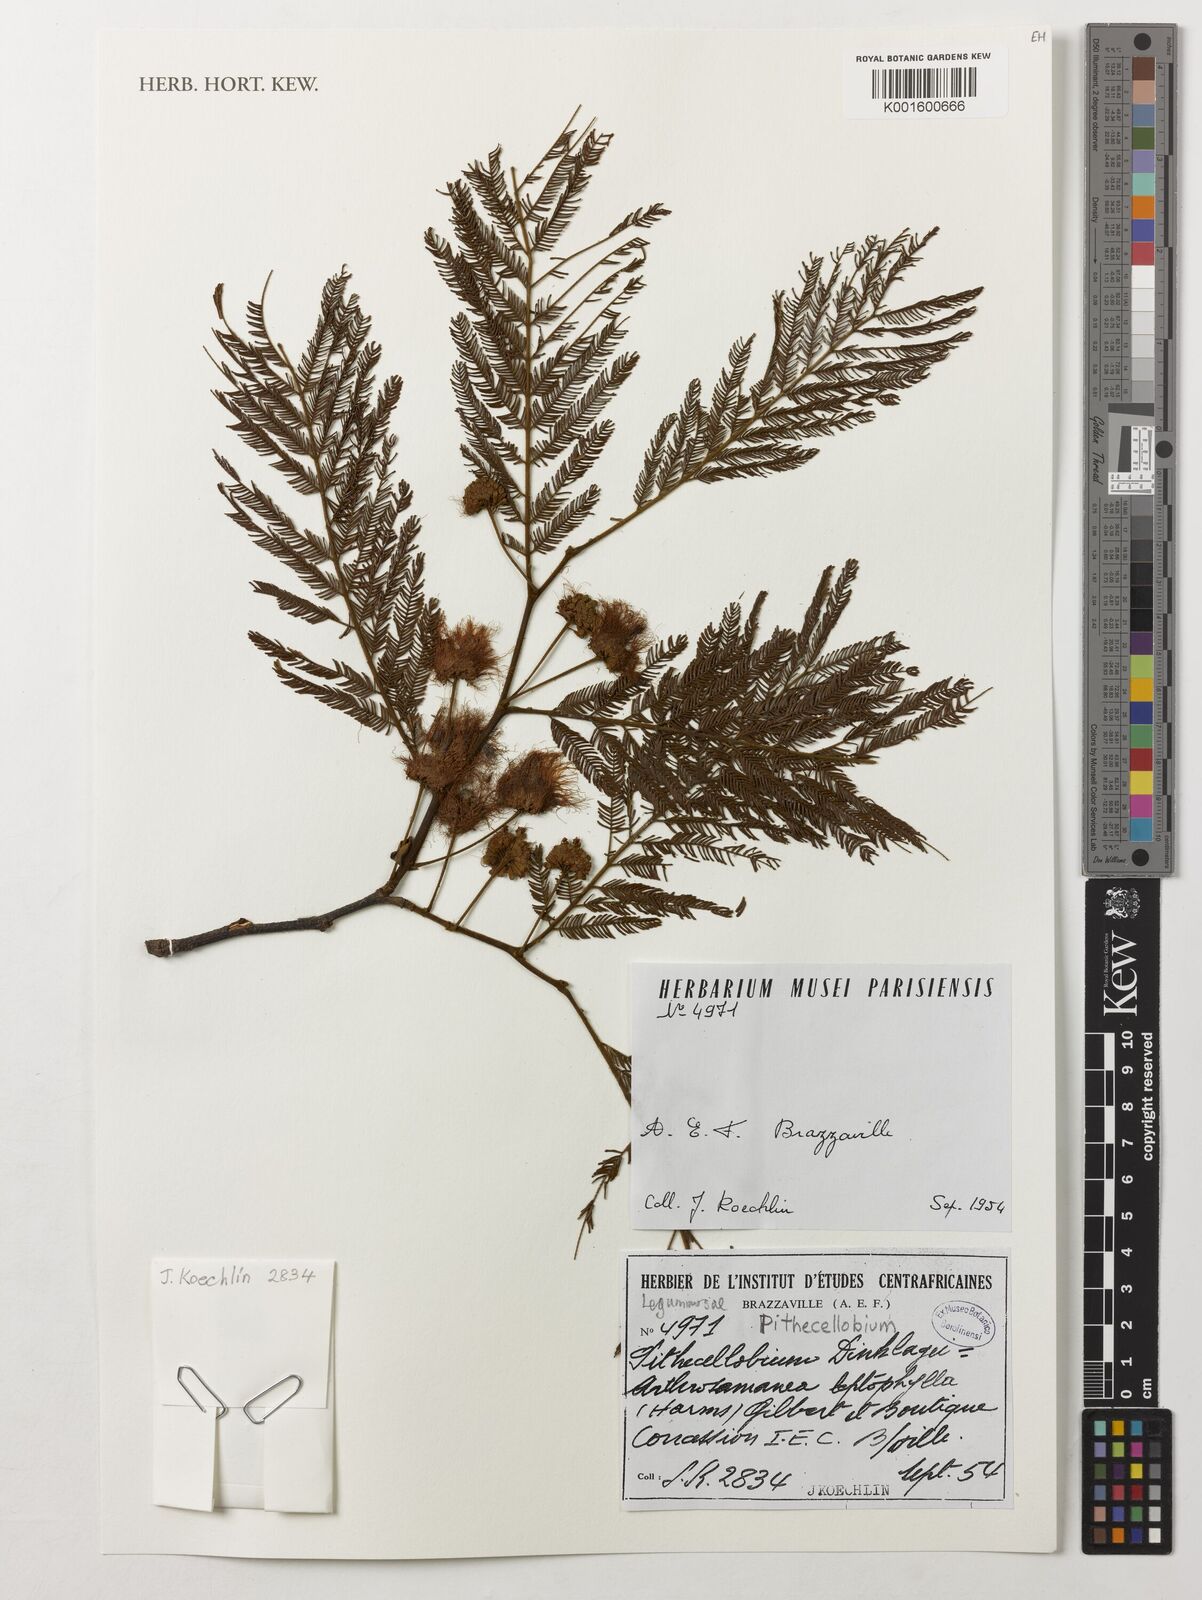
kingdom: Plantae
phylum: Tracheophyta
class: Magnoliopsida
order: Fabales
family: Fabaceae
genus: Samanea
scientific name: Samanea leptophylla
